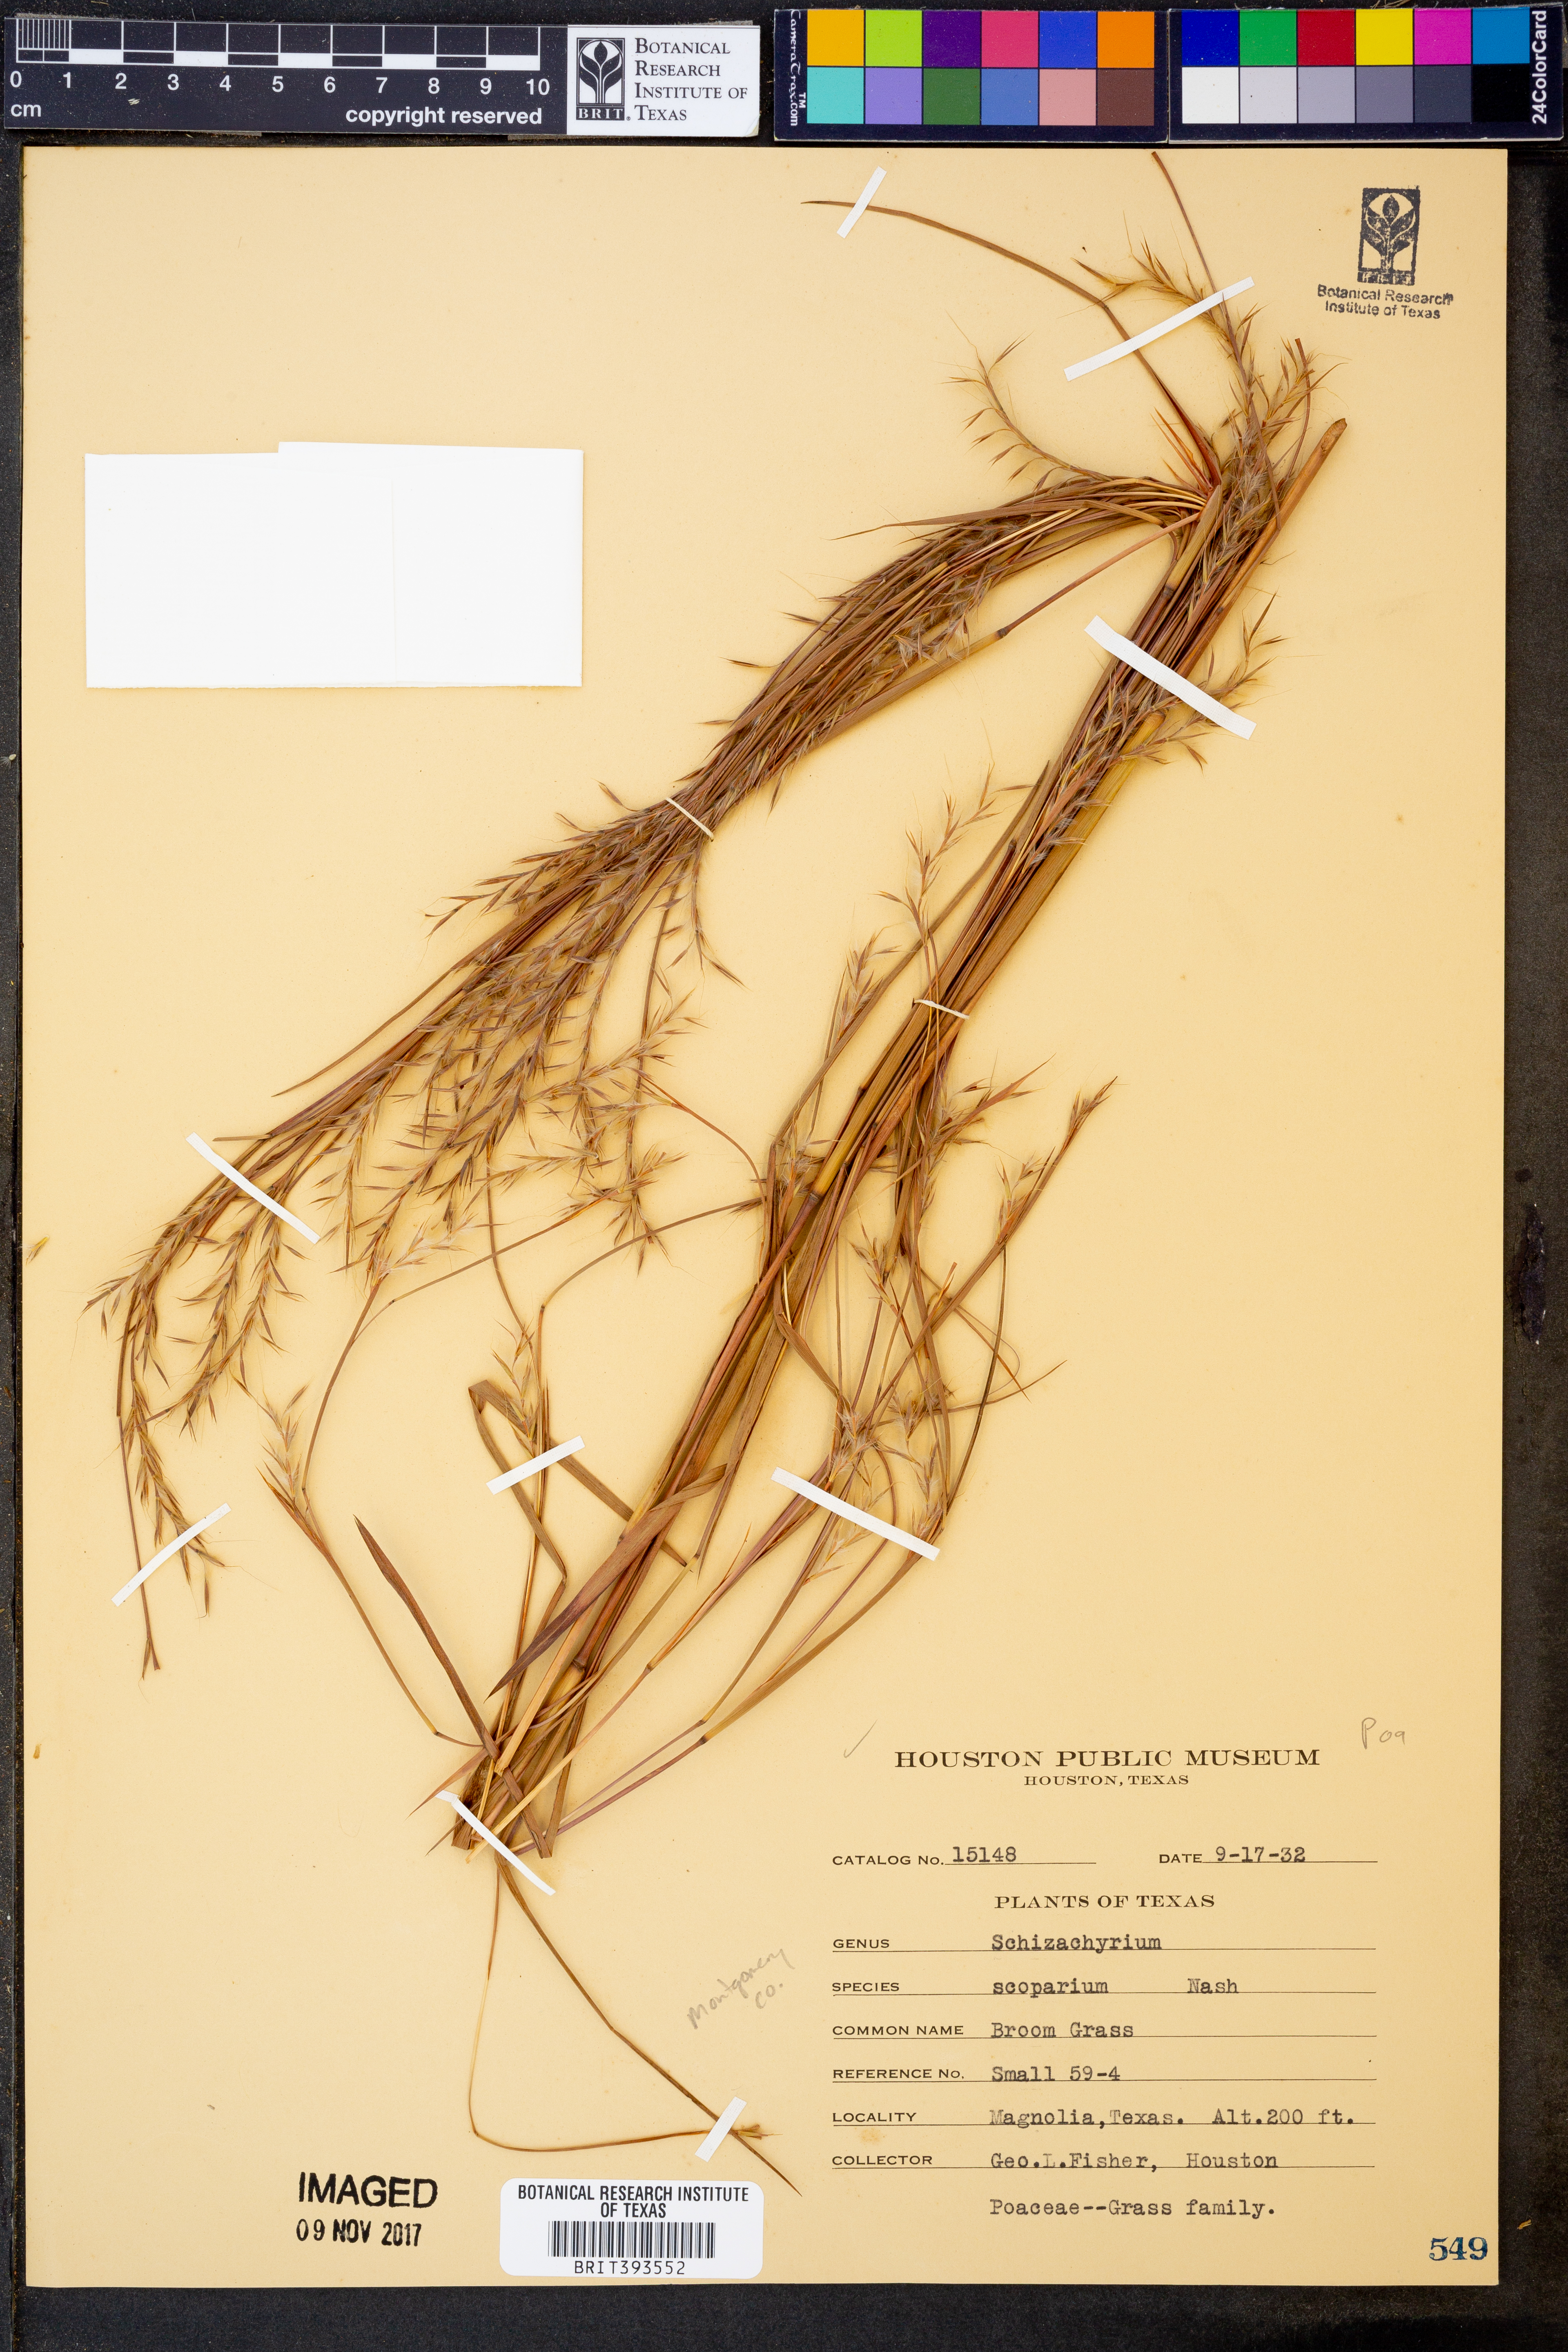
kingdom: Plantae
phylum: Tracheophyta
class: Liliopsida
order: Poales
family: Poaceae
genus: Schizachyrium
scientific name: Schizachyrium scoparium
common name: Little bluestem
